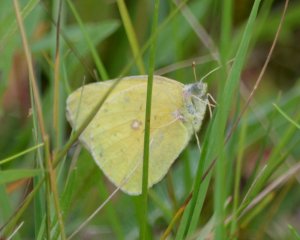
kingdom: Animalia
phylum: Arthropoda
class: Insecta
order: Lepidoptera
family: Pieridae
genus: Colias
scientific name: Colias interior
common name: Pink-edged Sulphur
